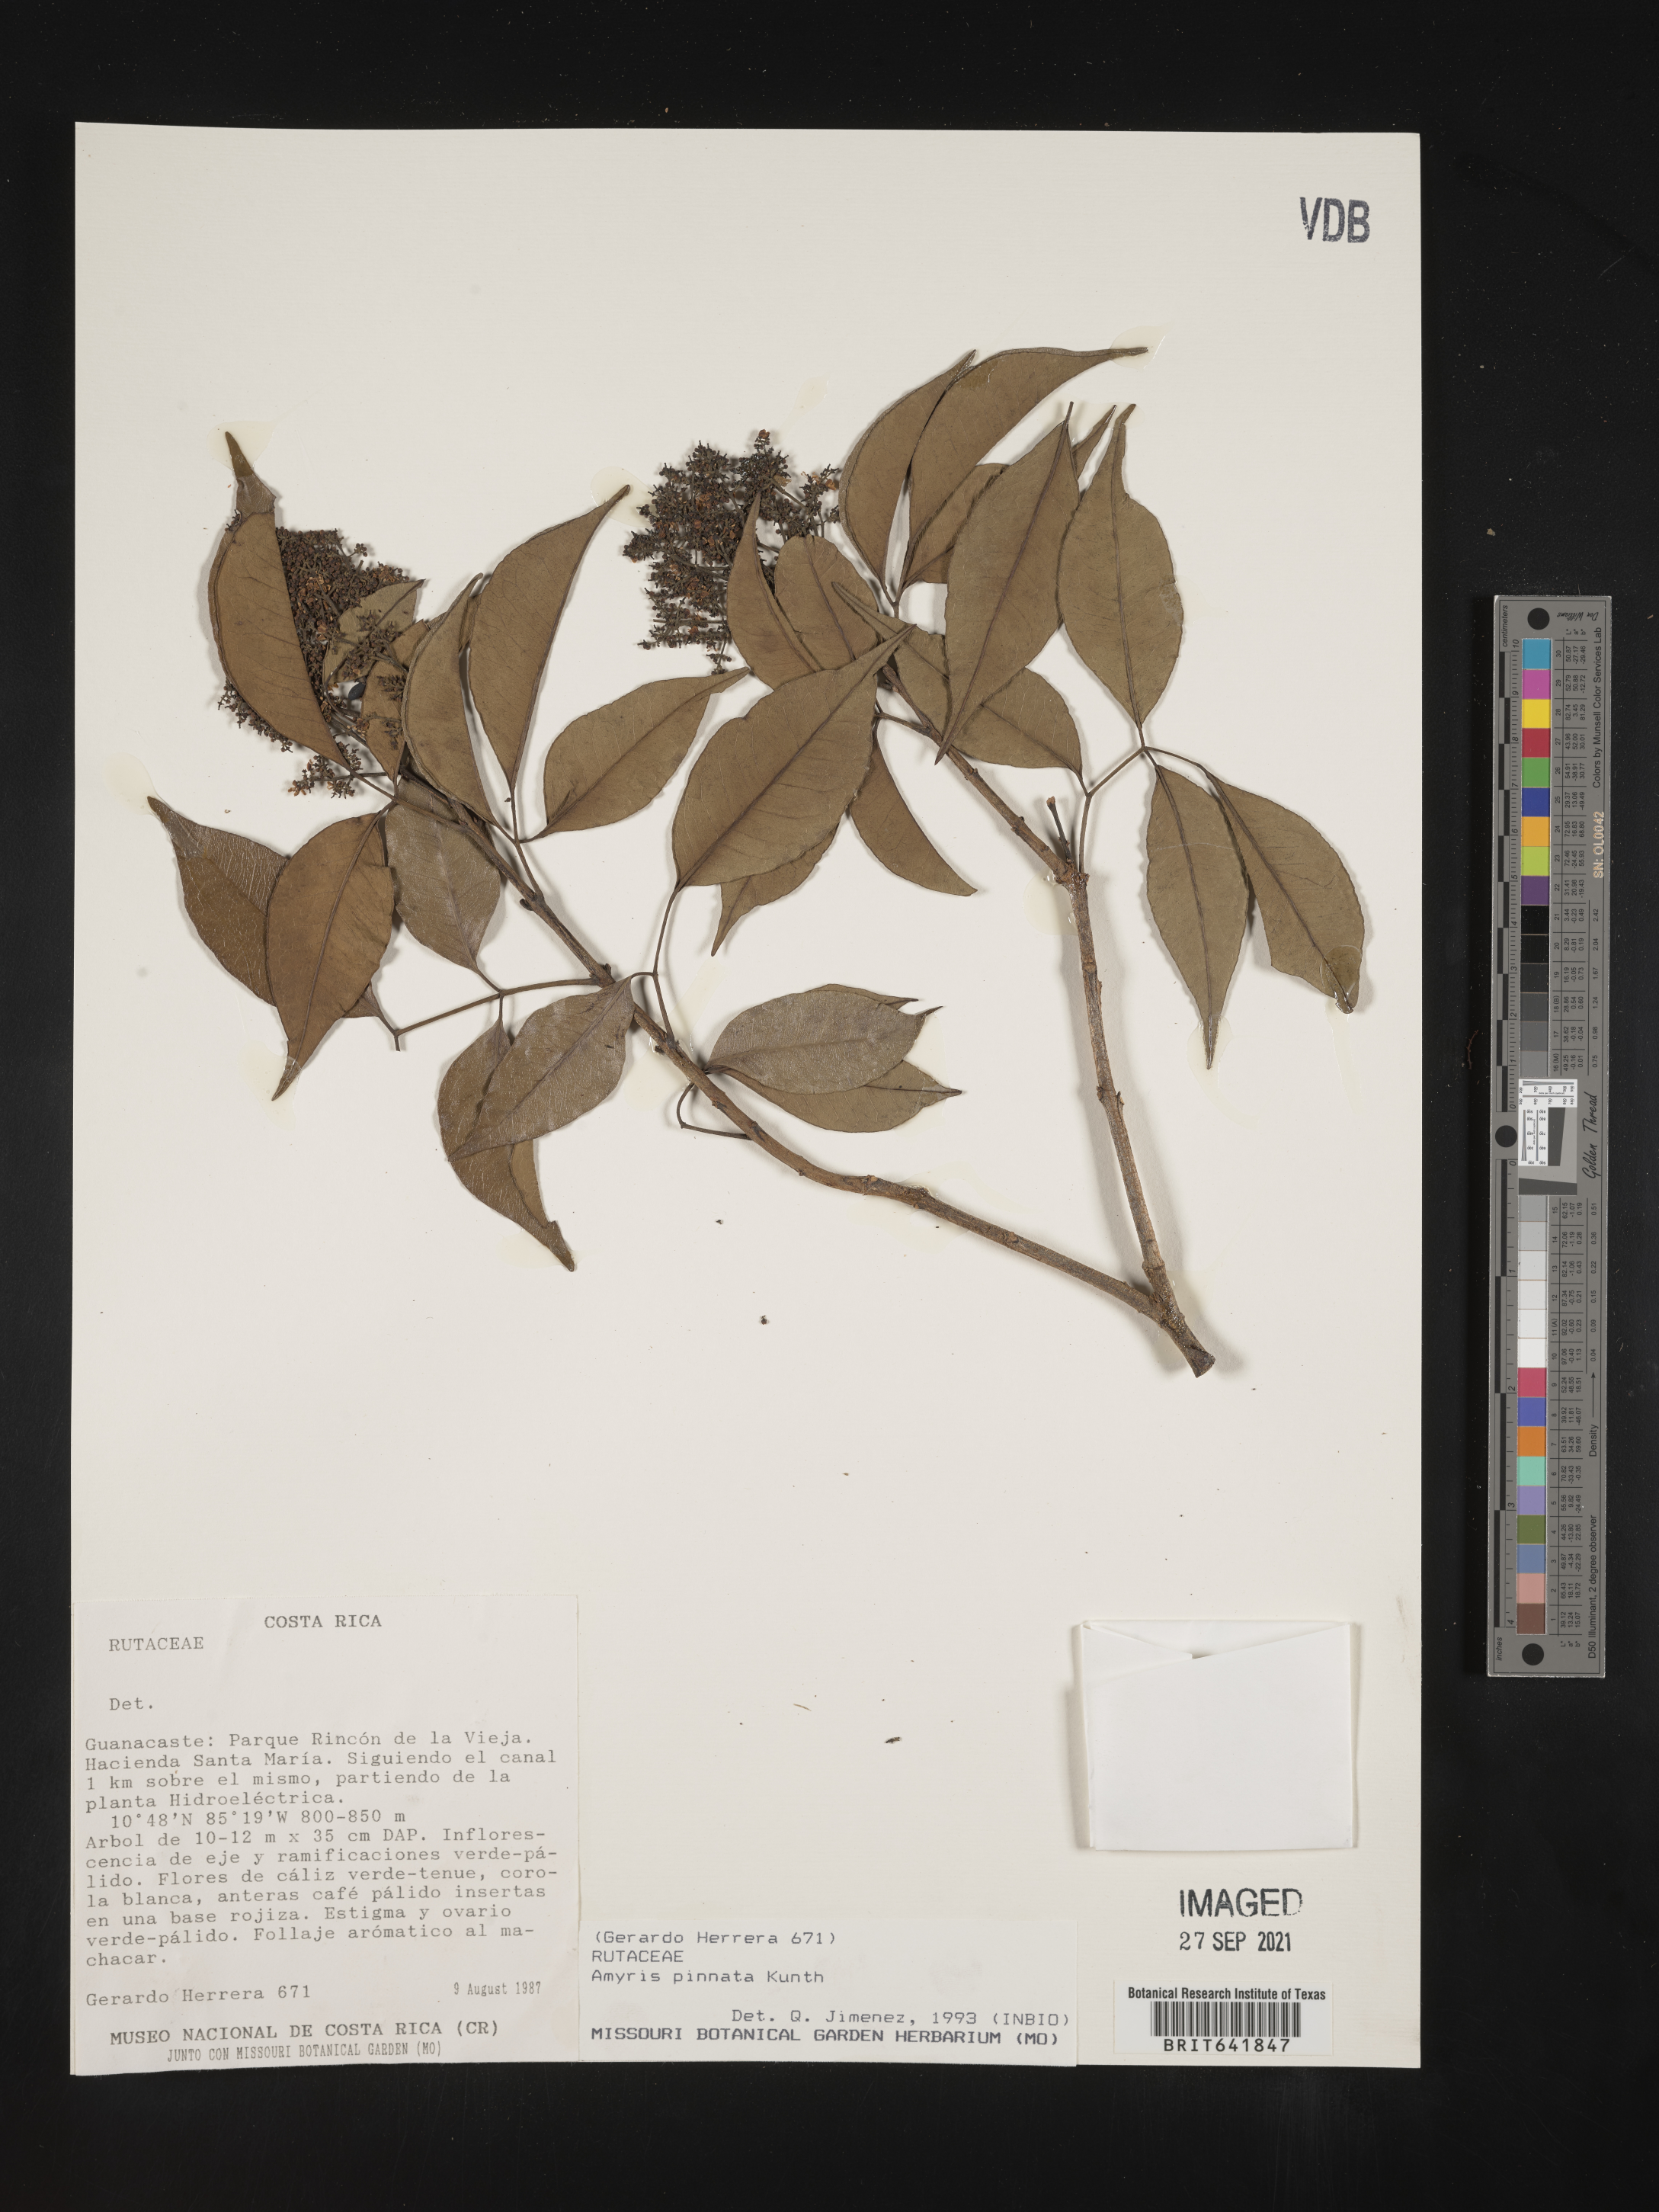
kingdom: Plantae
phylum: Tracheophyta
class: Magnoliopsida
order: Sapindales
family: Rutaceae
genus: Amyris
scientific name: Amyris
